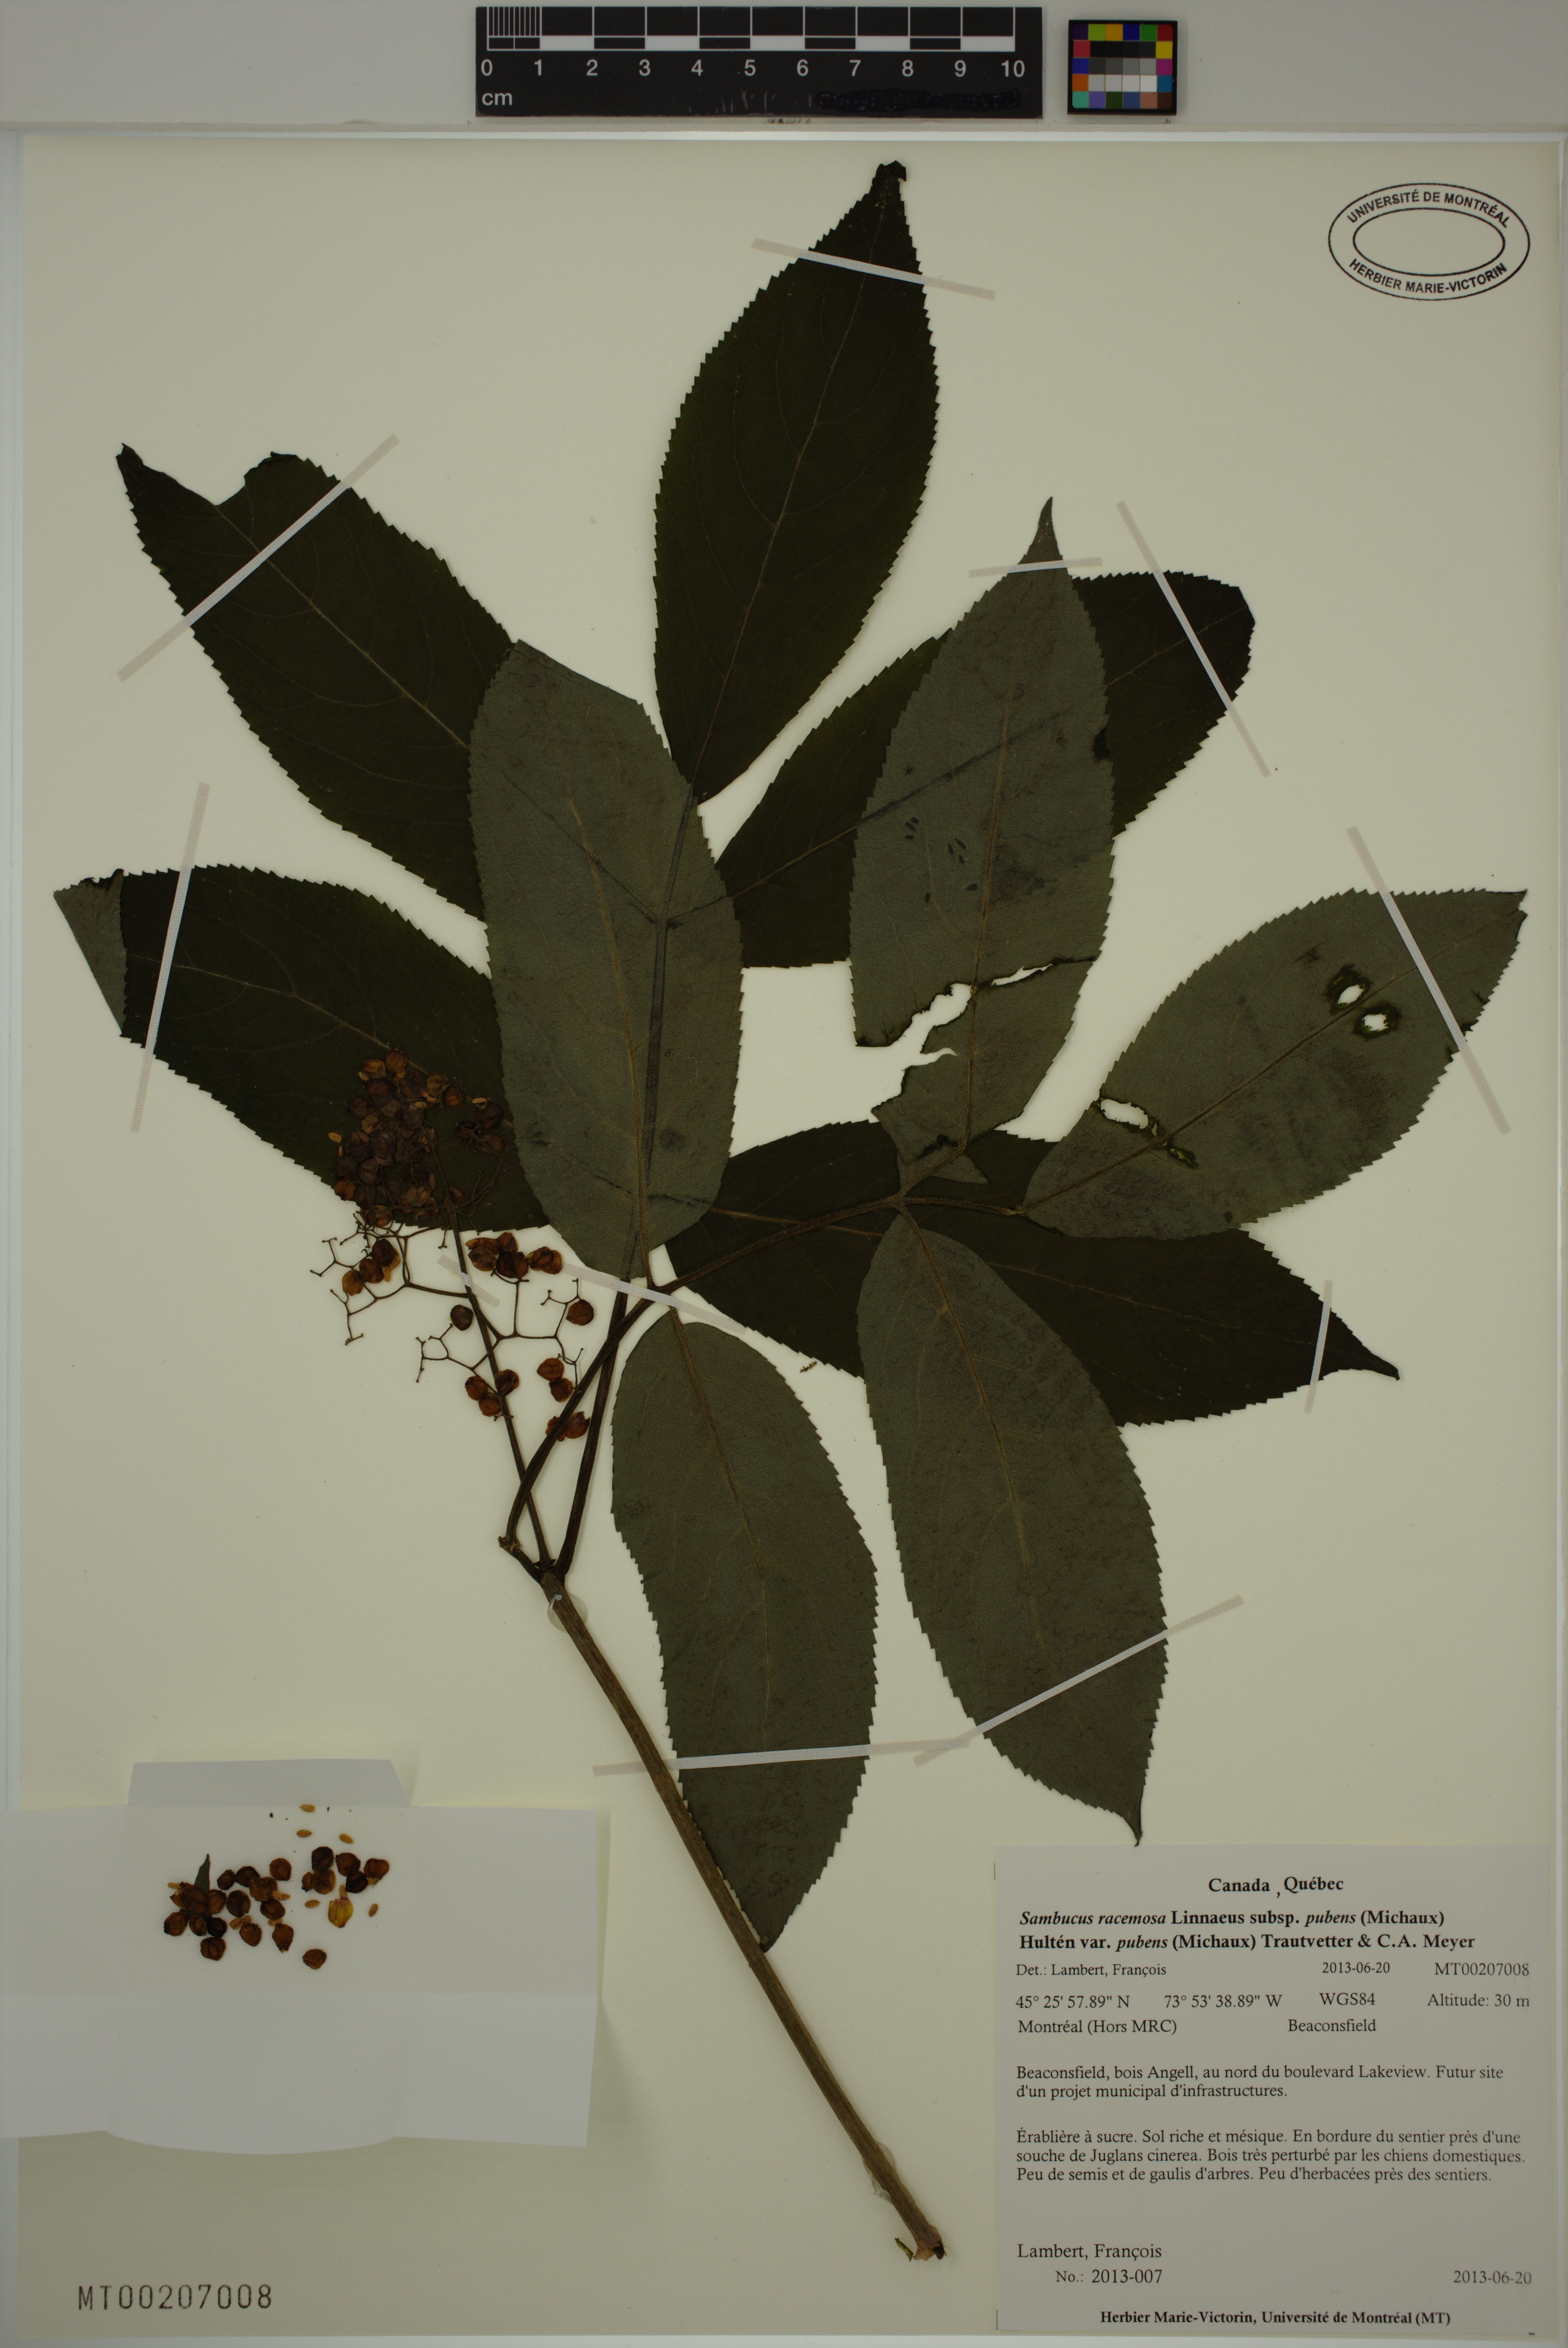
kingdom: Plantae
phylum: Tracheophyta
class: Magnoliopsida
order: Dipsacales
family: Viburnaceae
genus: Sambucus
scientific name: Sambucus racemosa
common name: Red-berried elder
